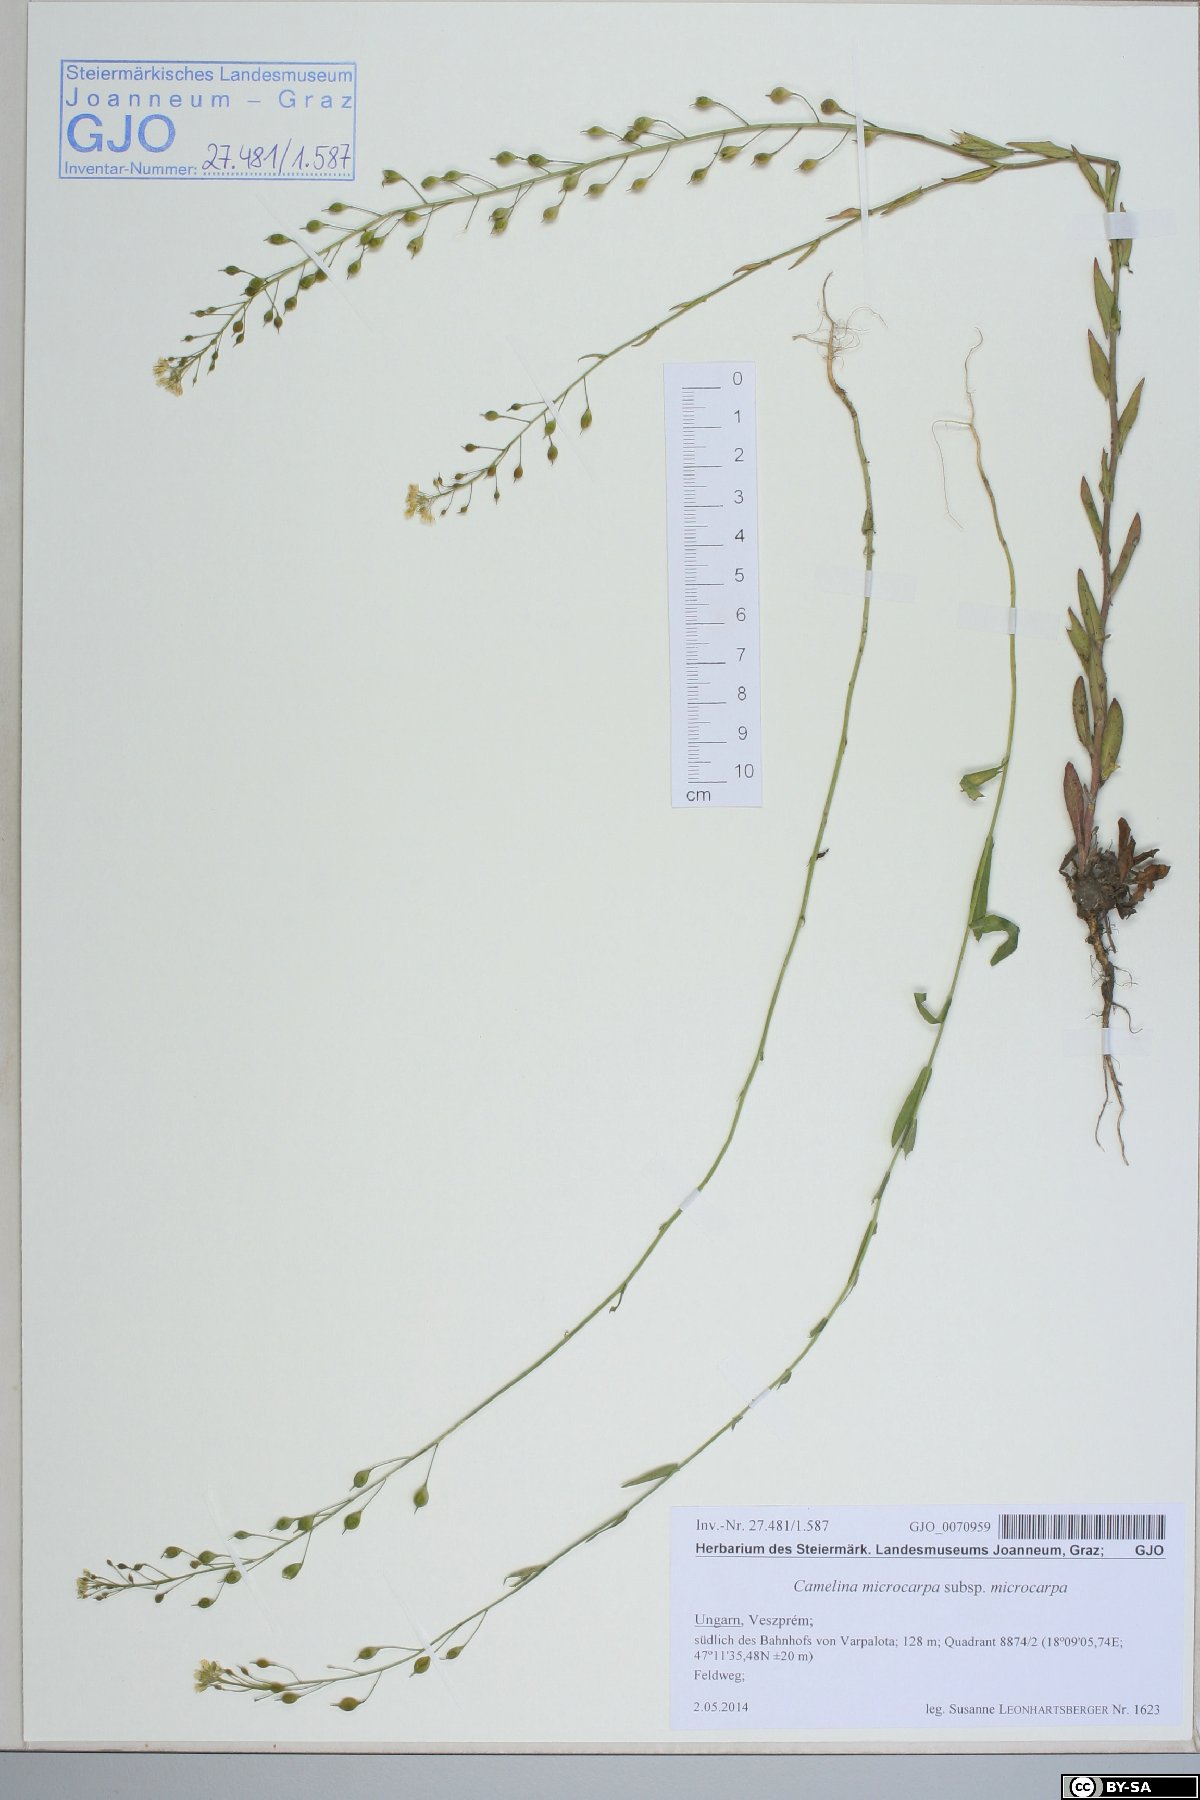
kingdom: Plantae
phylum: Tracheophyta
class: Magnoliopsida
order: Brassicales
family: Brassicaceae
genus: Camelina
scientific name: Camelina microcarpa
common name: Lesser gold-of-pleasure
